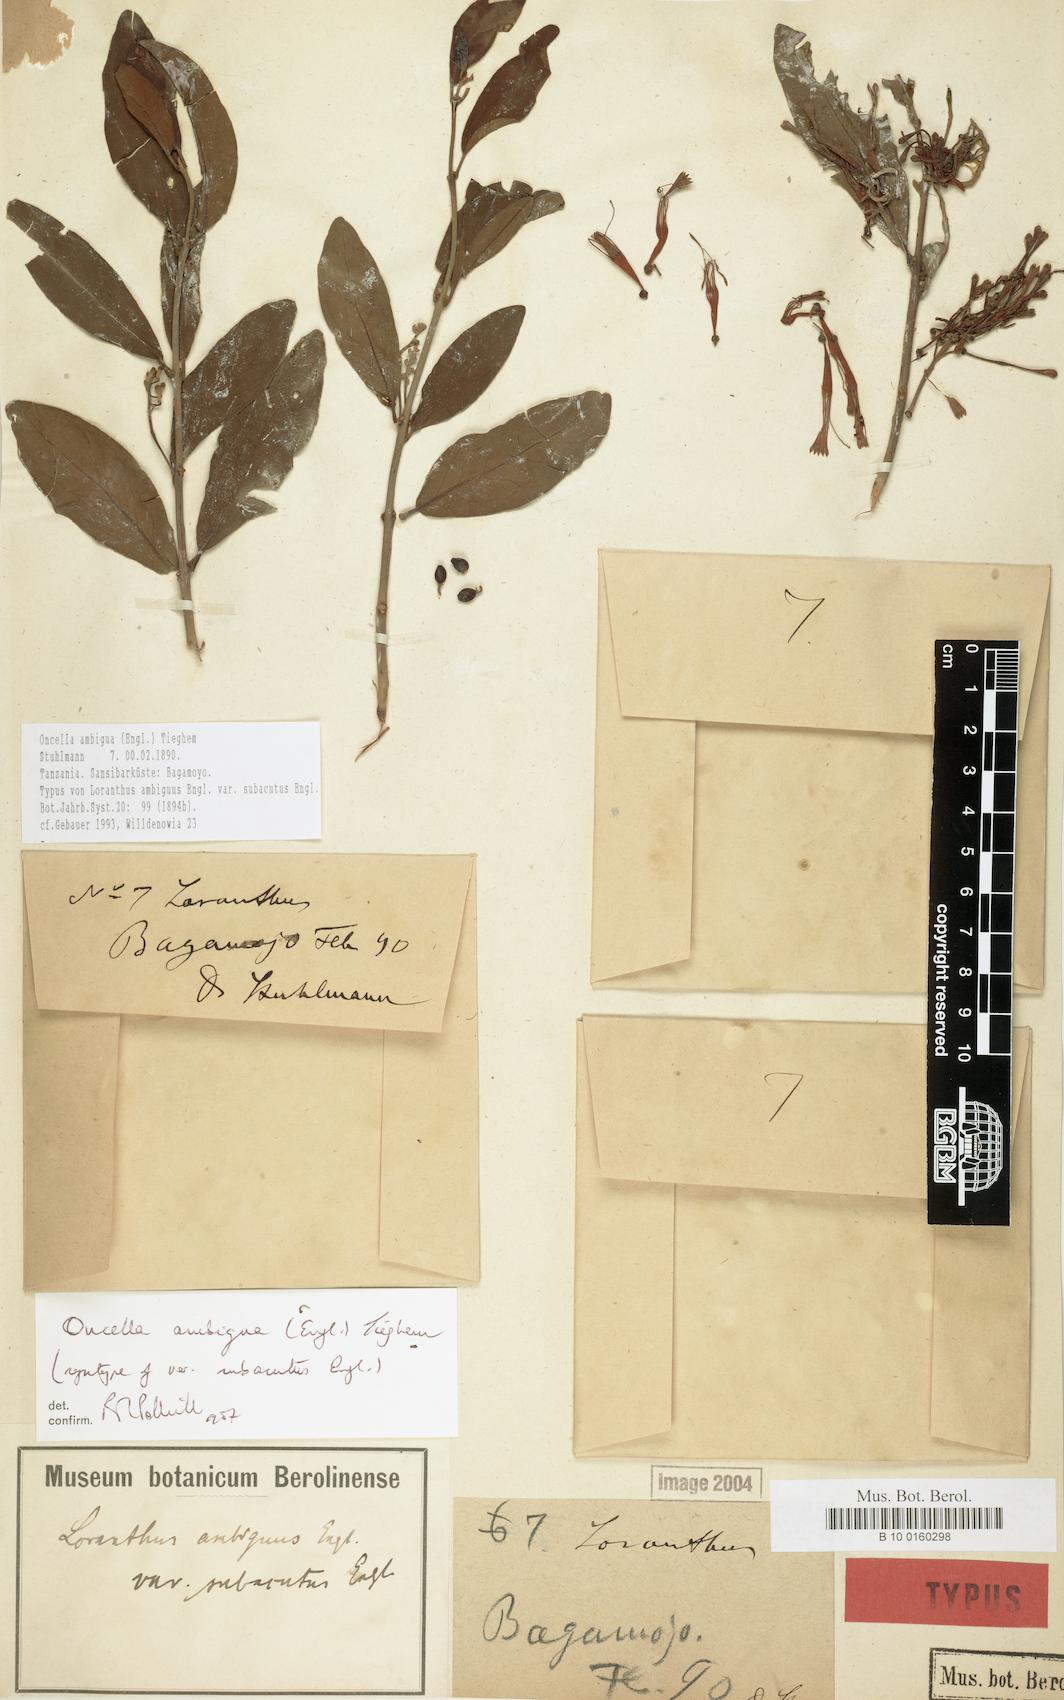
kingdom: Plantae
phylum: Tracheophyta
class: Magnoliopsida
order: Santalales
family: Loranthaceae
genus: Oncella
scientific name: Oncella ambigua
